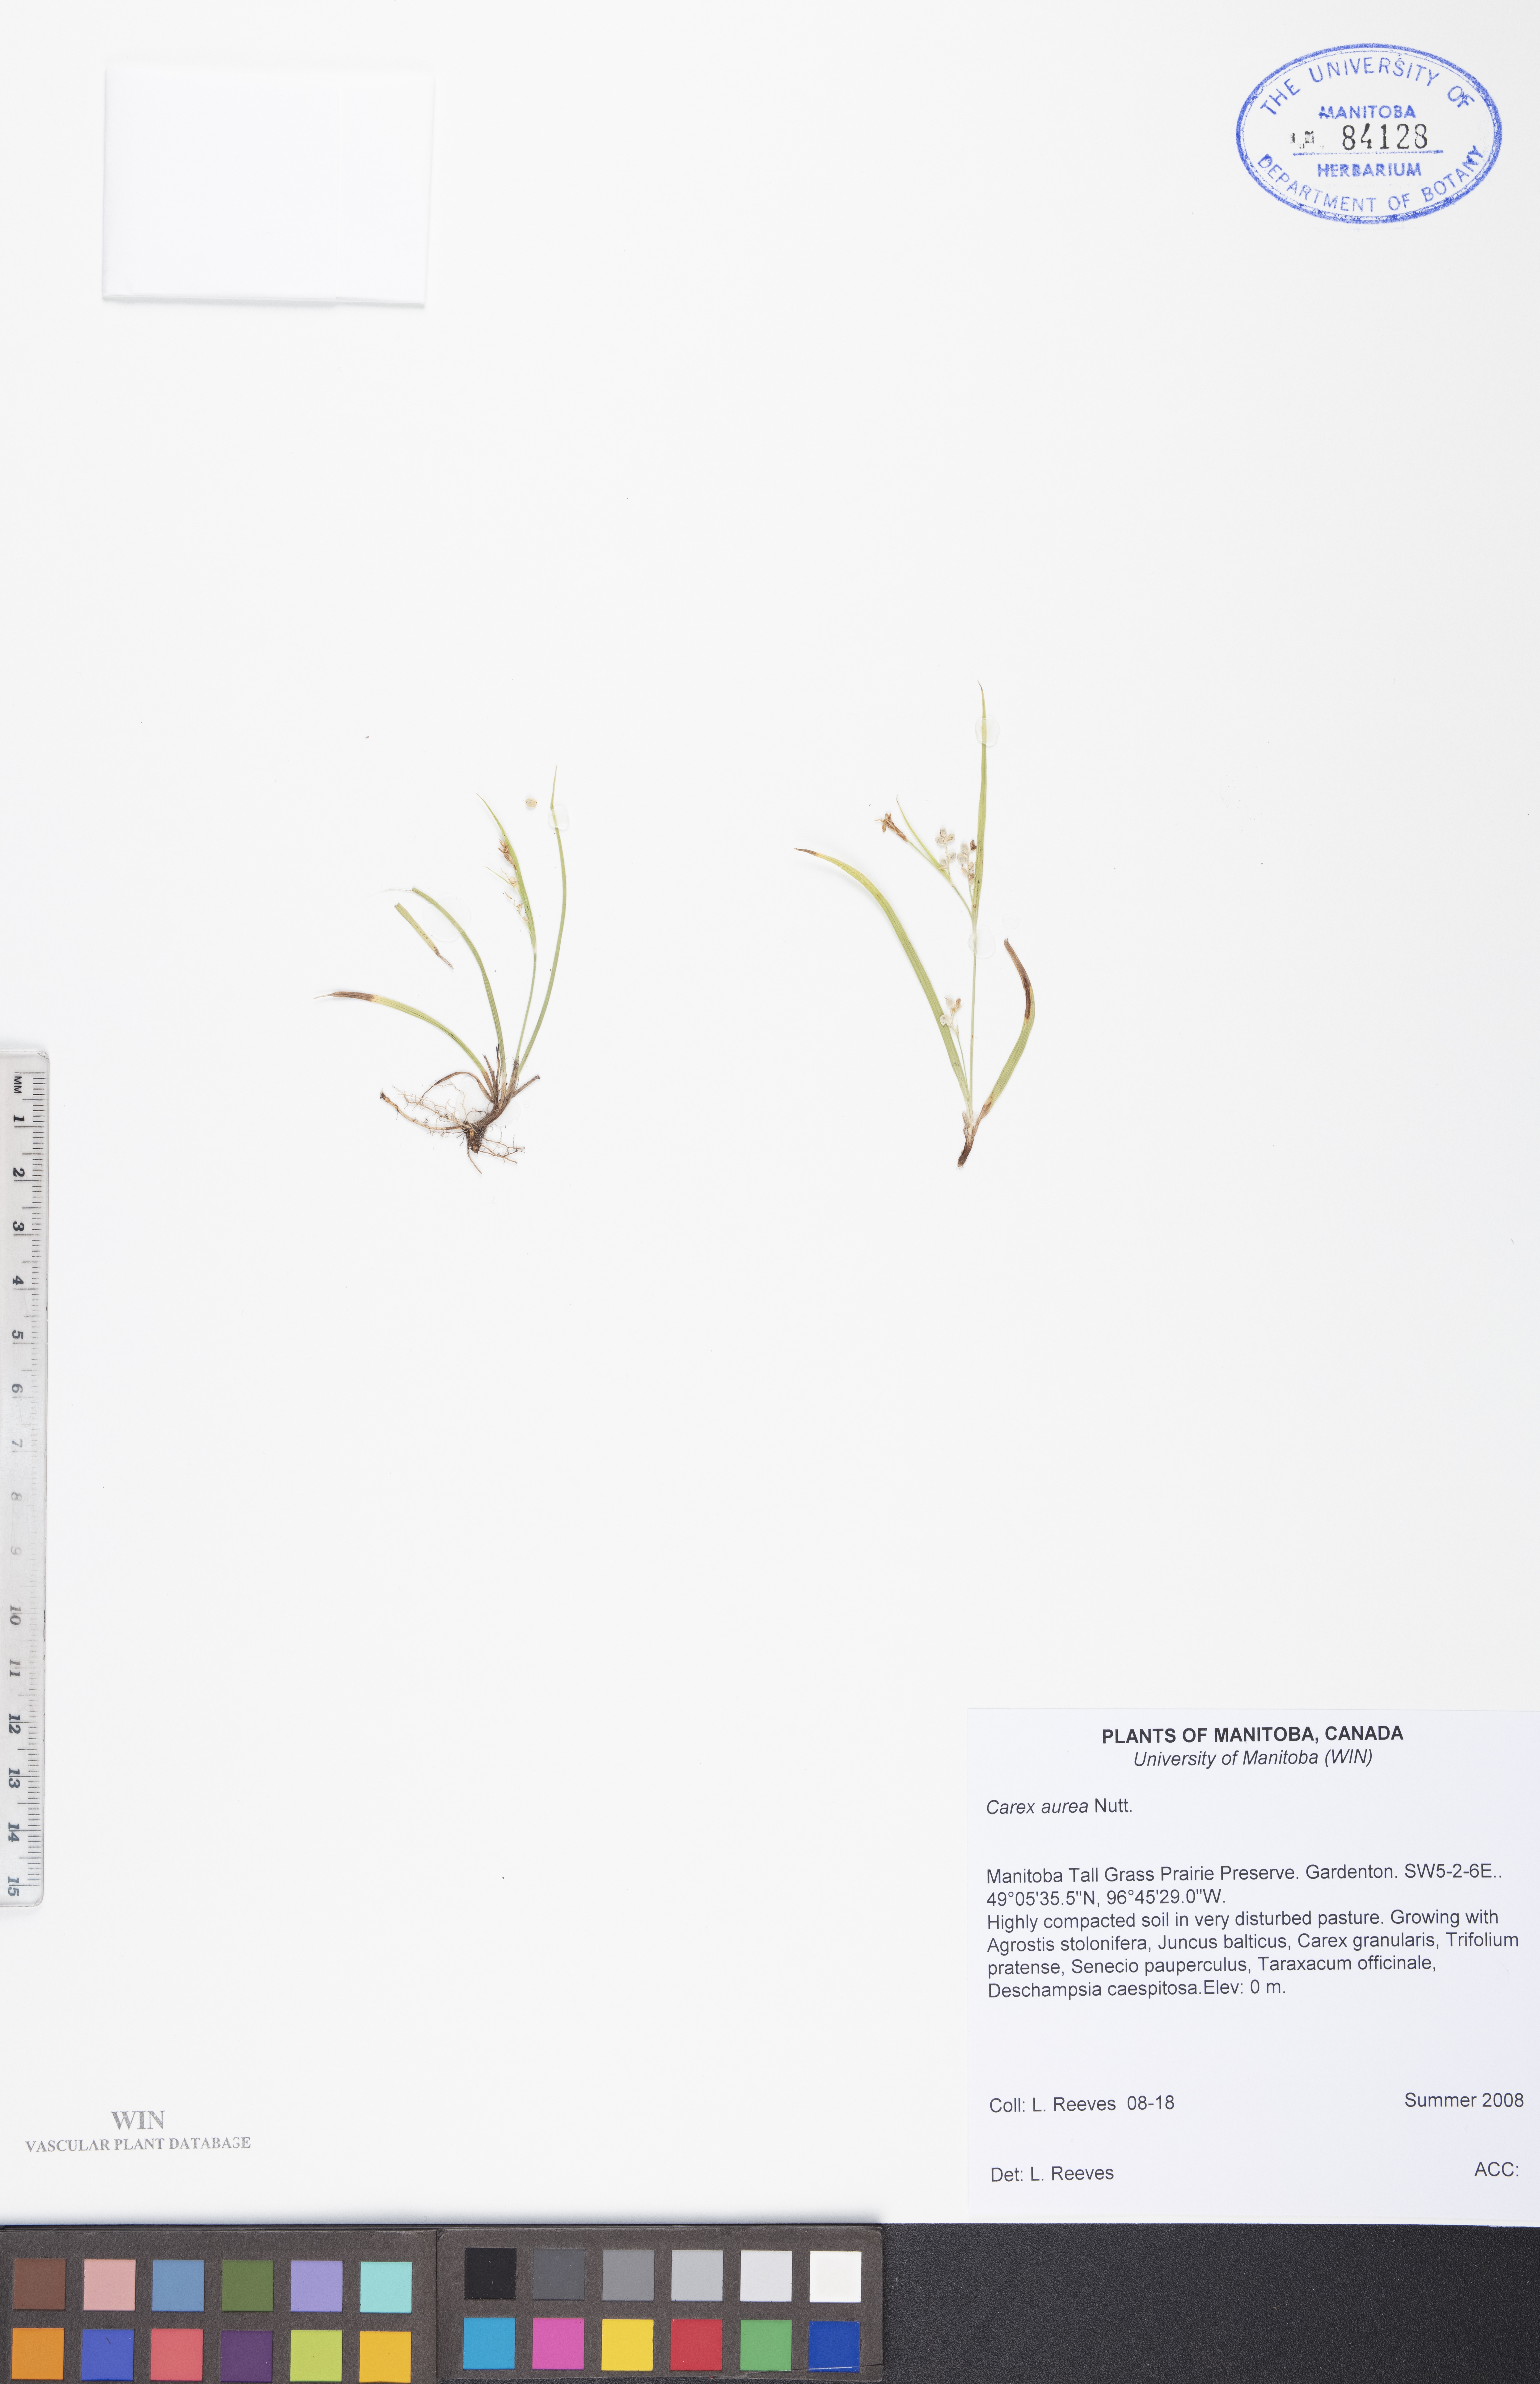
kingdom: Plantae
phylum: Tracheophyta
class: Liliopsida
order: Poales
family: Cyperaceae
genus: Carex
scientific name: Carex aurea
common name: Golden sedge
